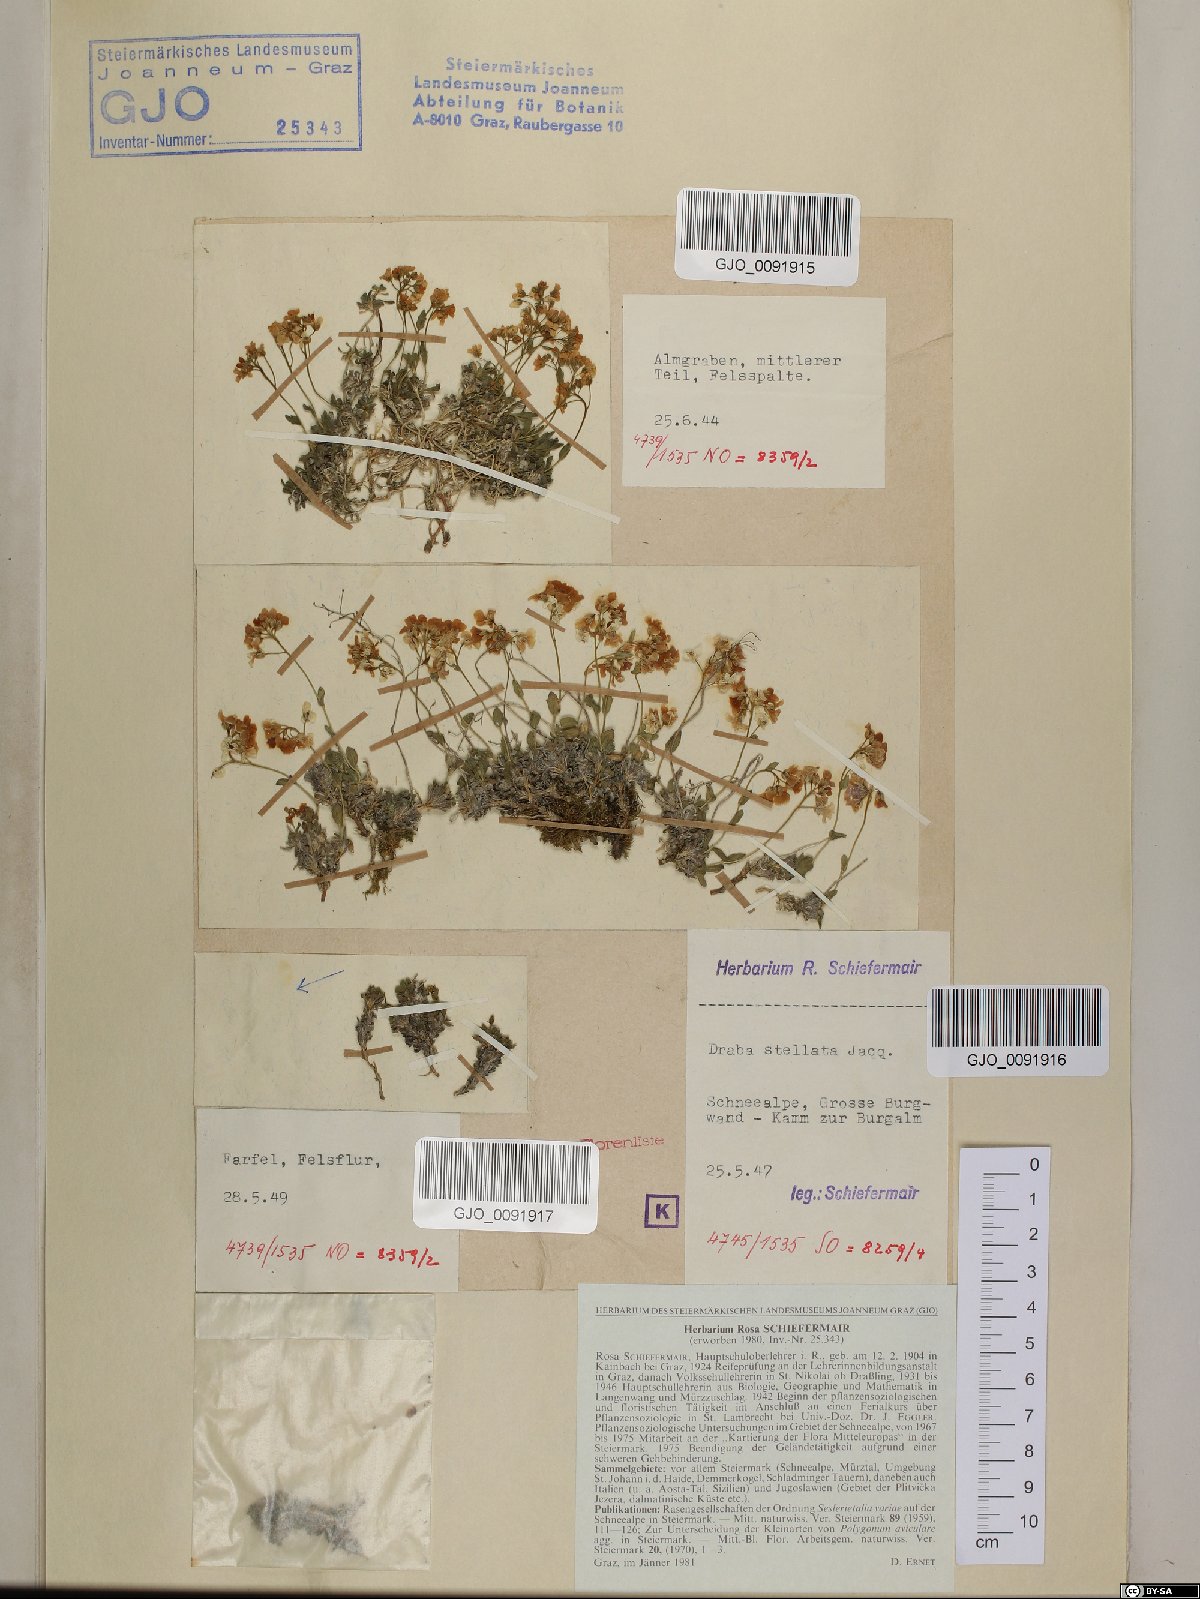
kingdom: Plantae
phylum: Tracheophyta
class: Magnoliopsida
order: Brassicales
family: Brassicaceae
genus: Draba
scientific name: Draba stellata
